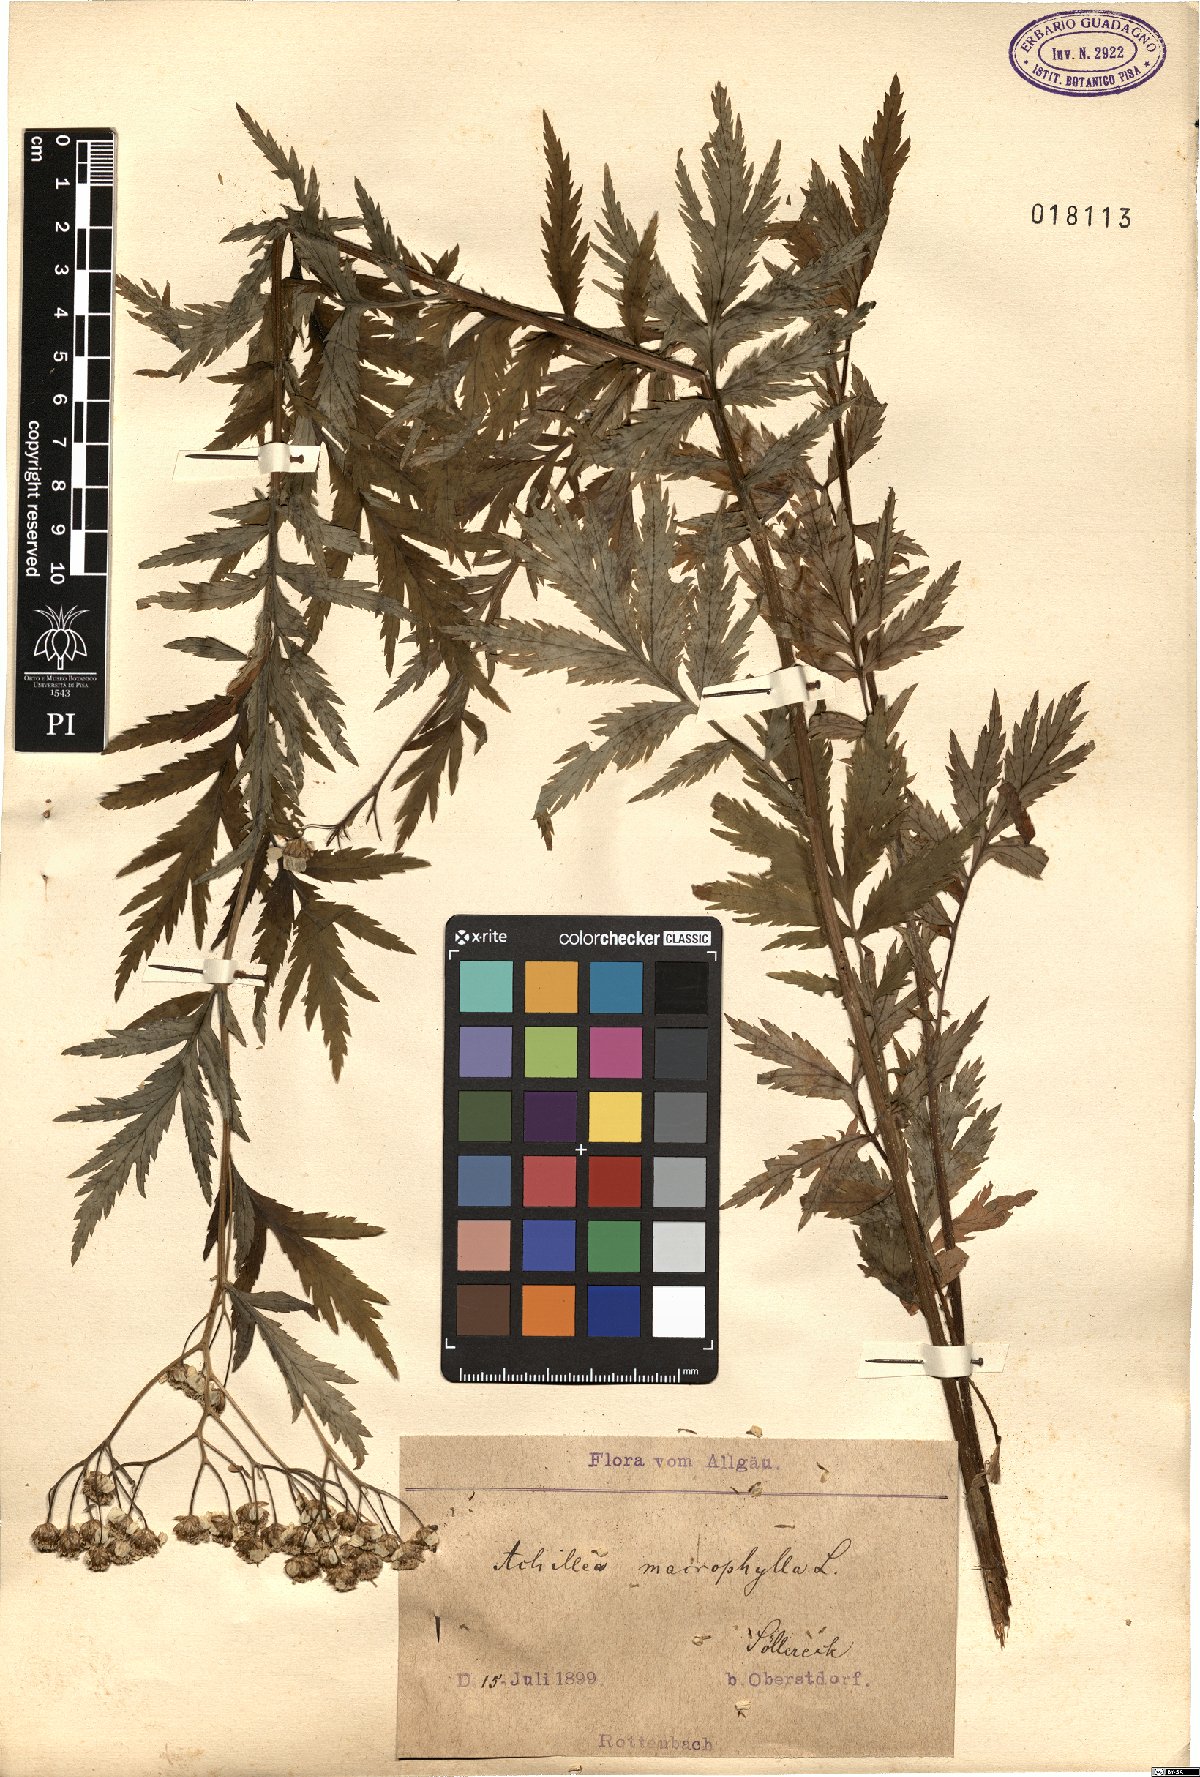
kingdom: Plantae
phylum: Tracheophyta
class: Magnoliopsida
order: Asterales
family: Asteraceae
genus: Achillea
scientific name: Achillea macrophylla
